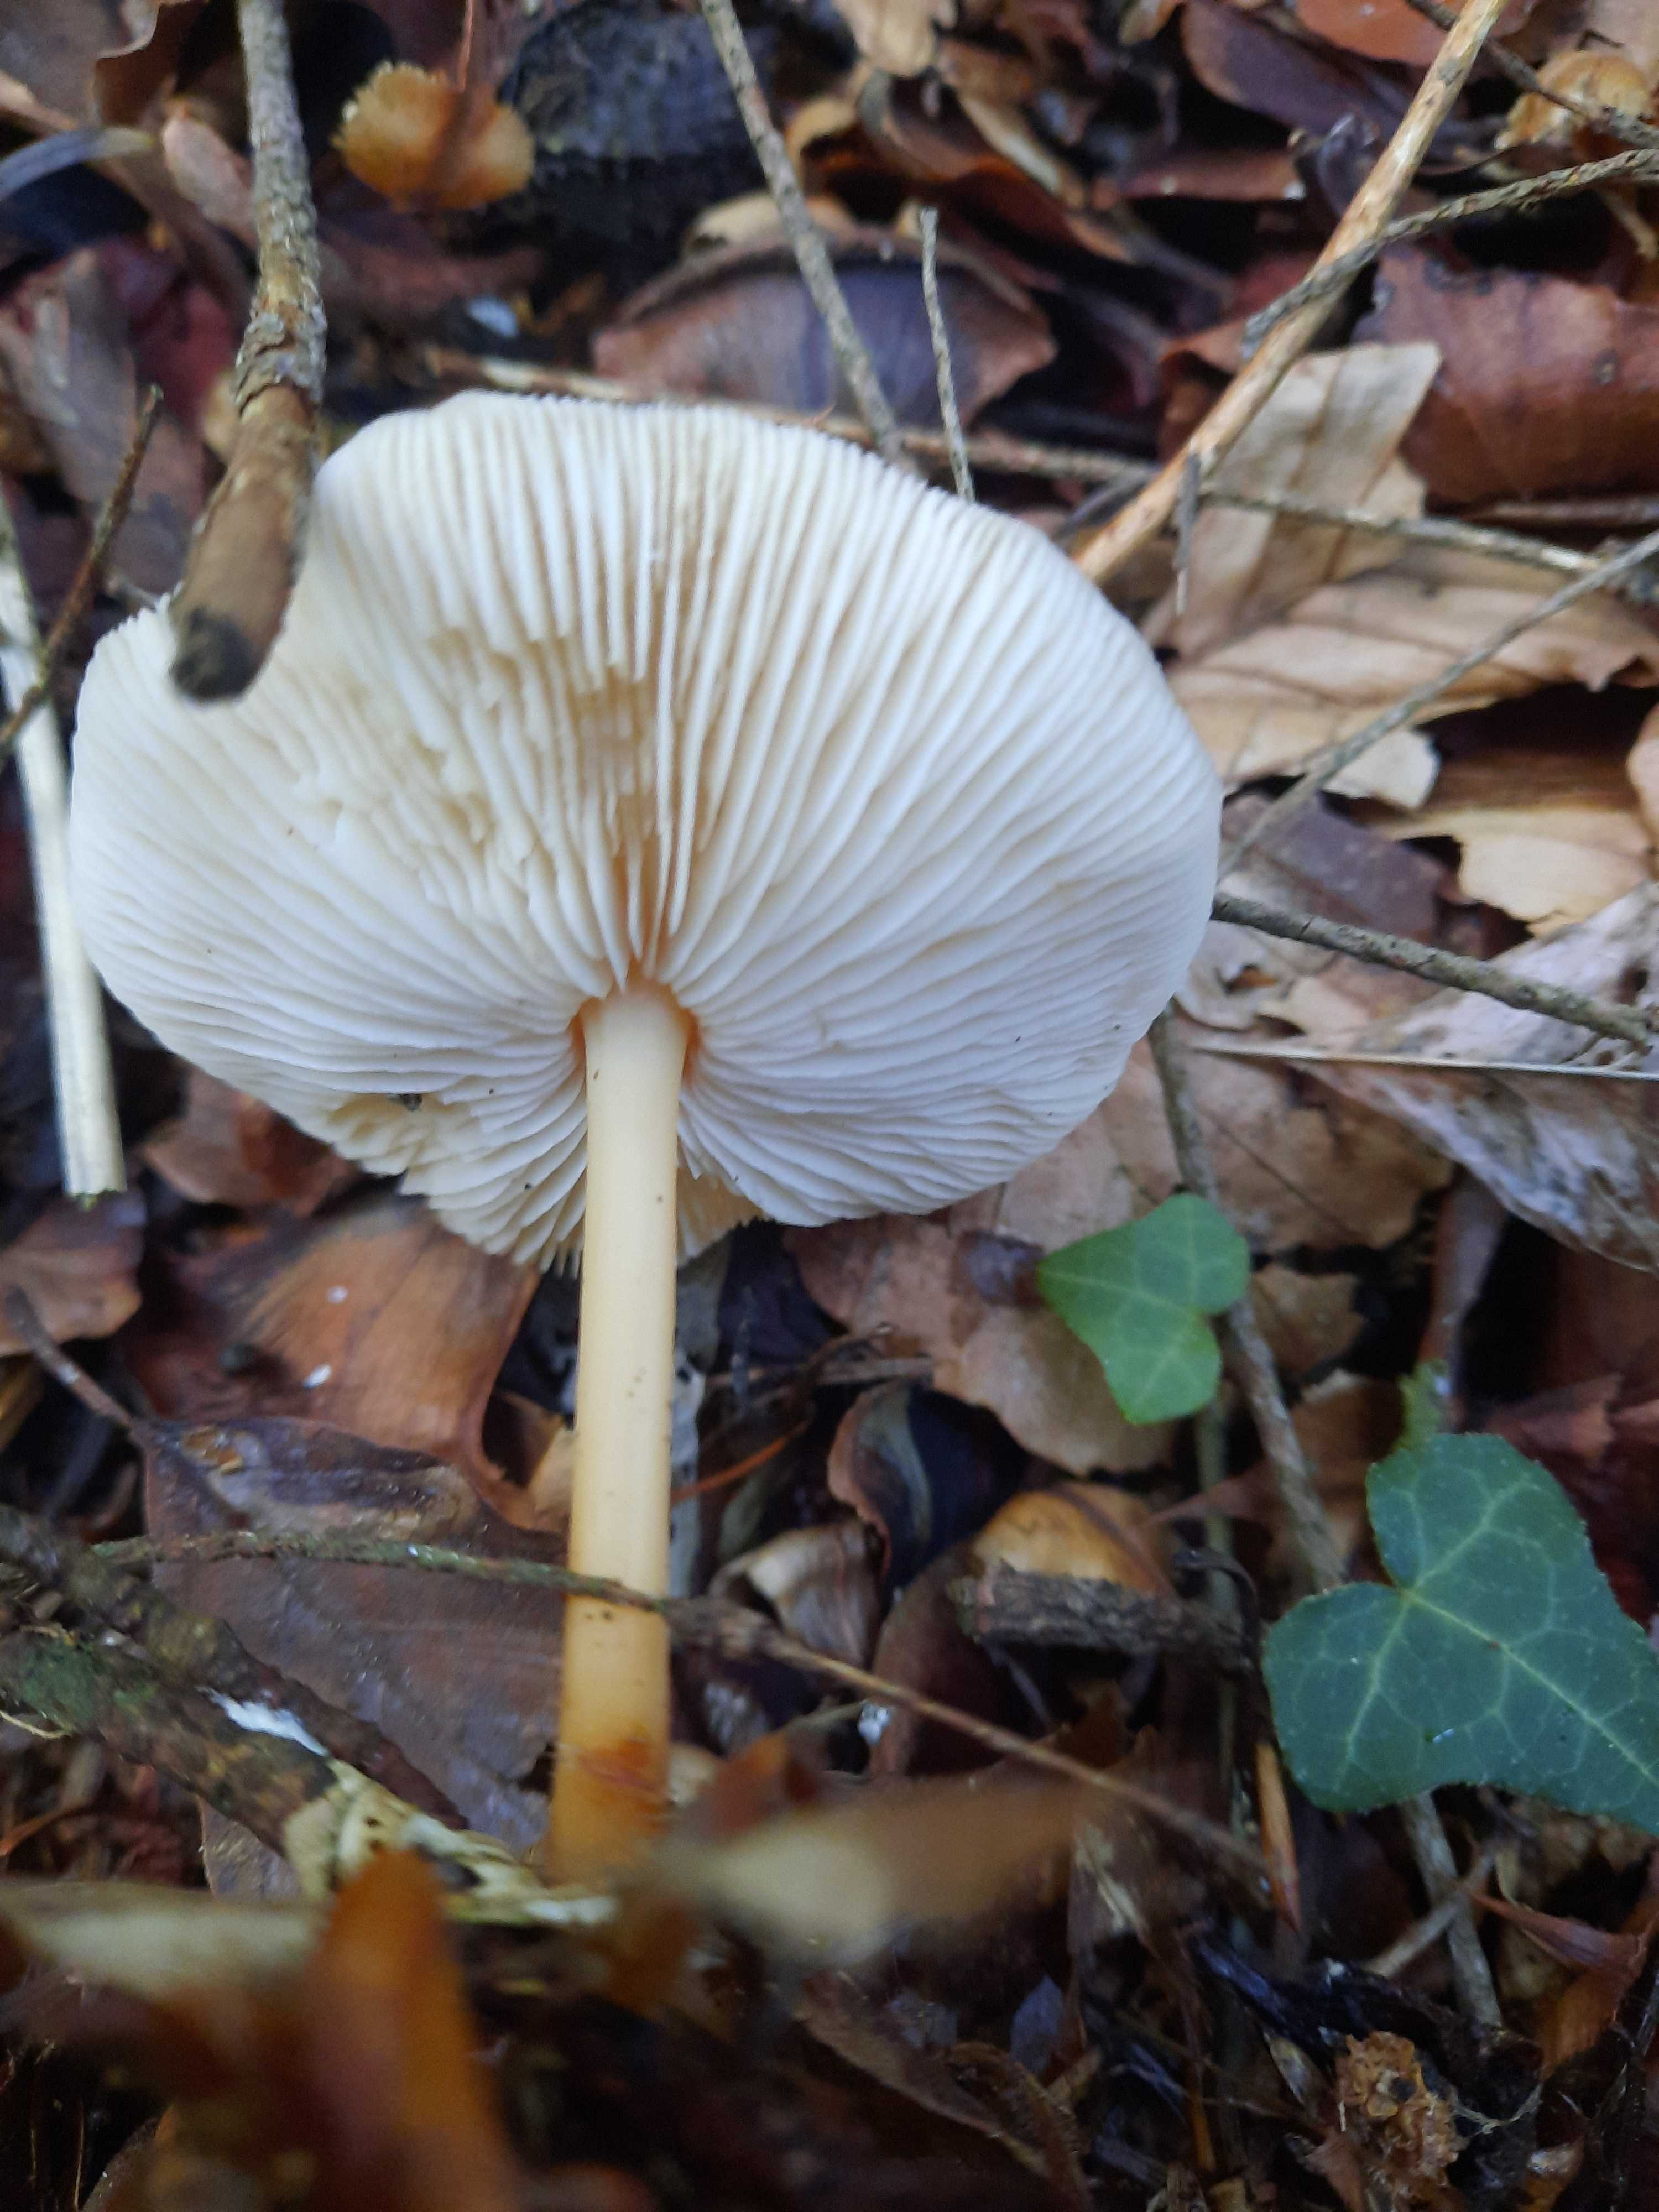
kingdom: Fungi
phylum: Basidiomycota
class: Agaricomycetes
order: Agaricales
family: Omphalotaceae
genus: Gymnopus
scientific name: Gymnopus dryophilus
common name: løv-fladhat
